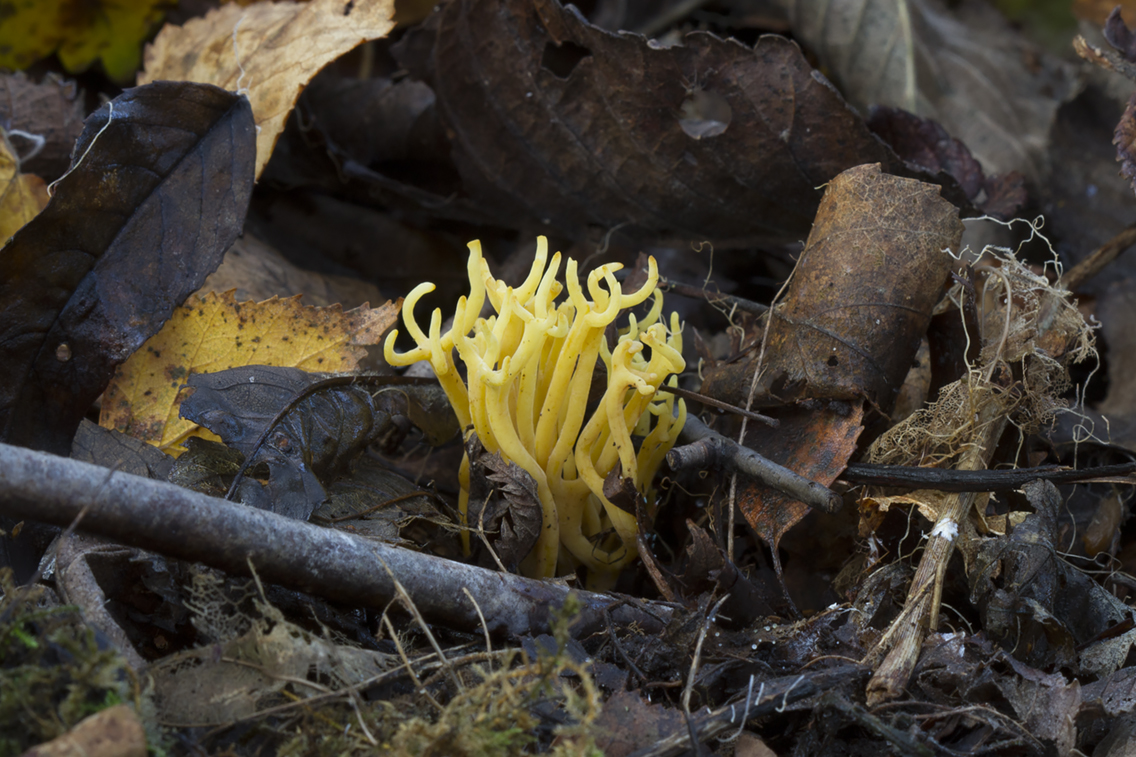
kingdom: Fungi
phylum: Basidiomycota
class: Agaricomycetes
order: Agaricales
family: Clavariaceae
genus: Clavulinopsis
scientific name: Clavulinopsis corniculata
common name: eng-køllesvamp
